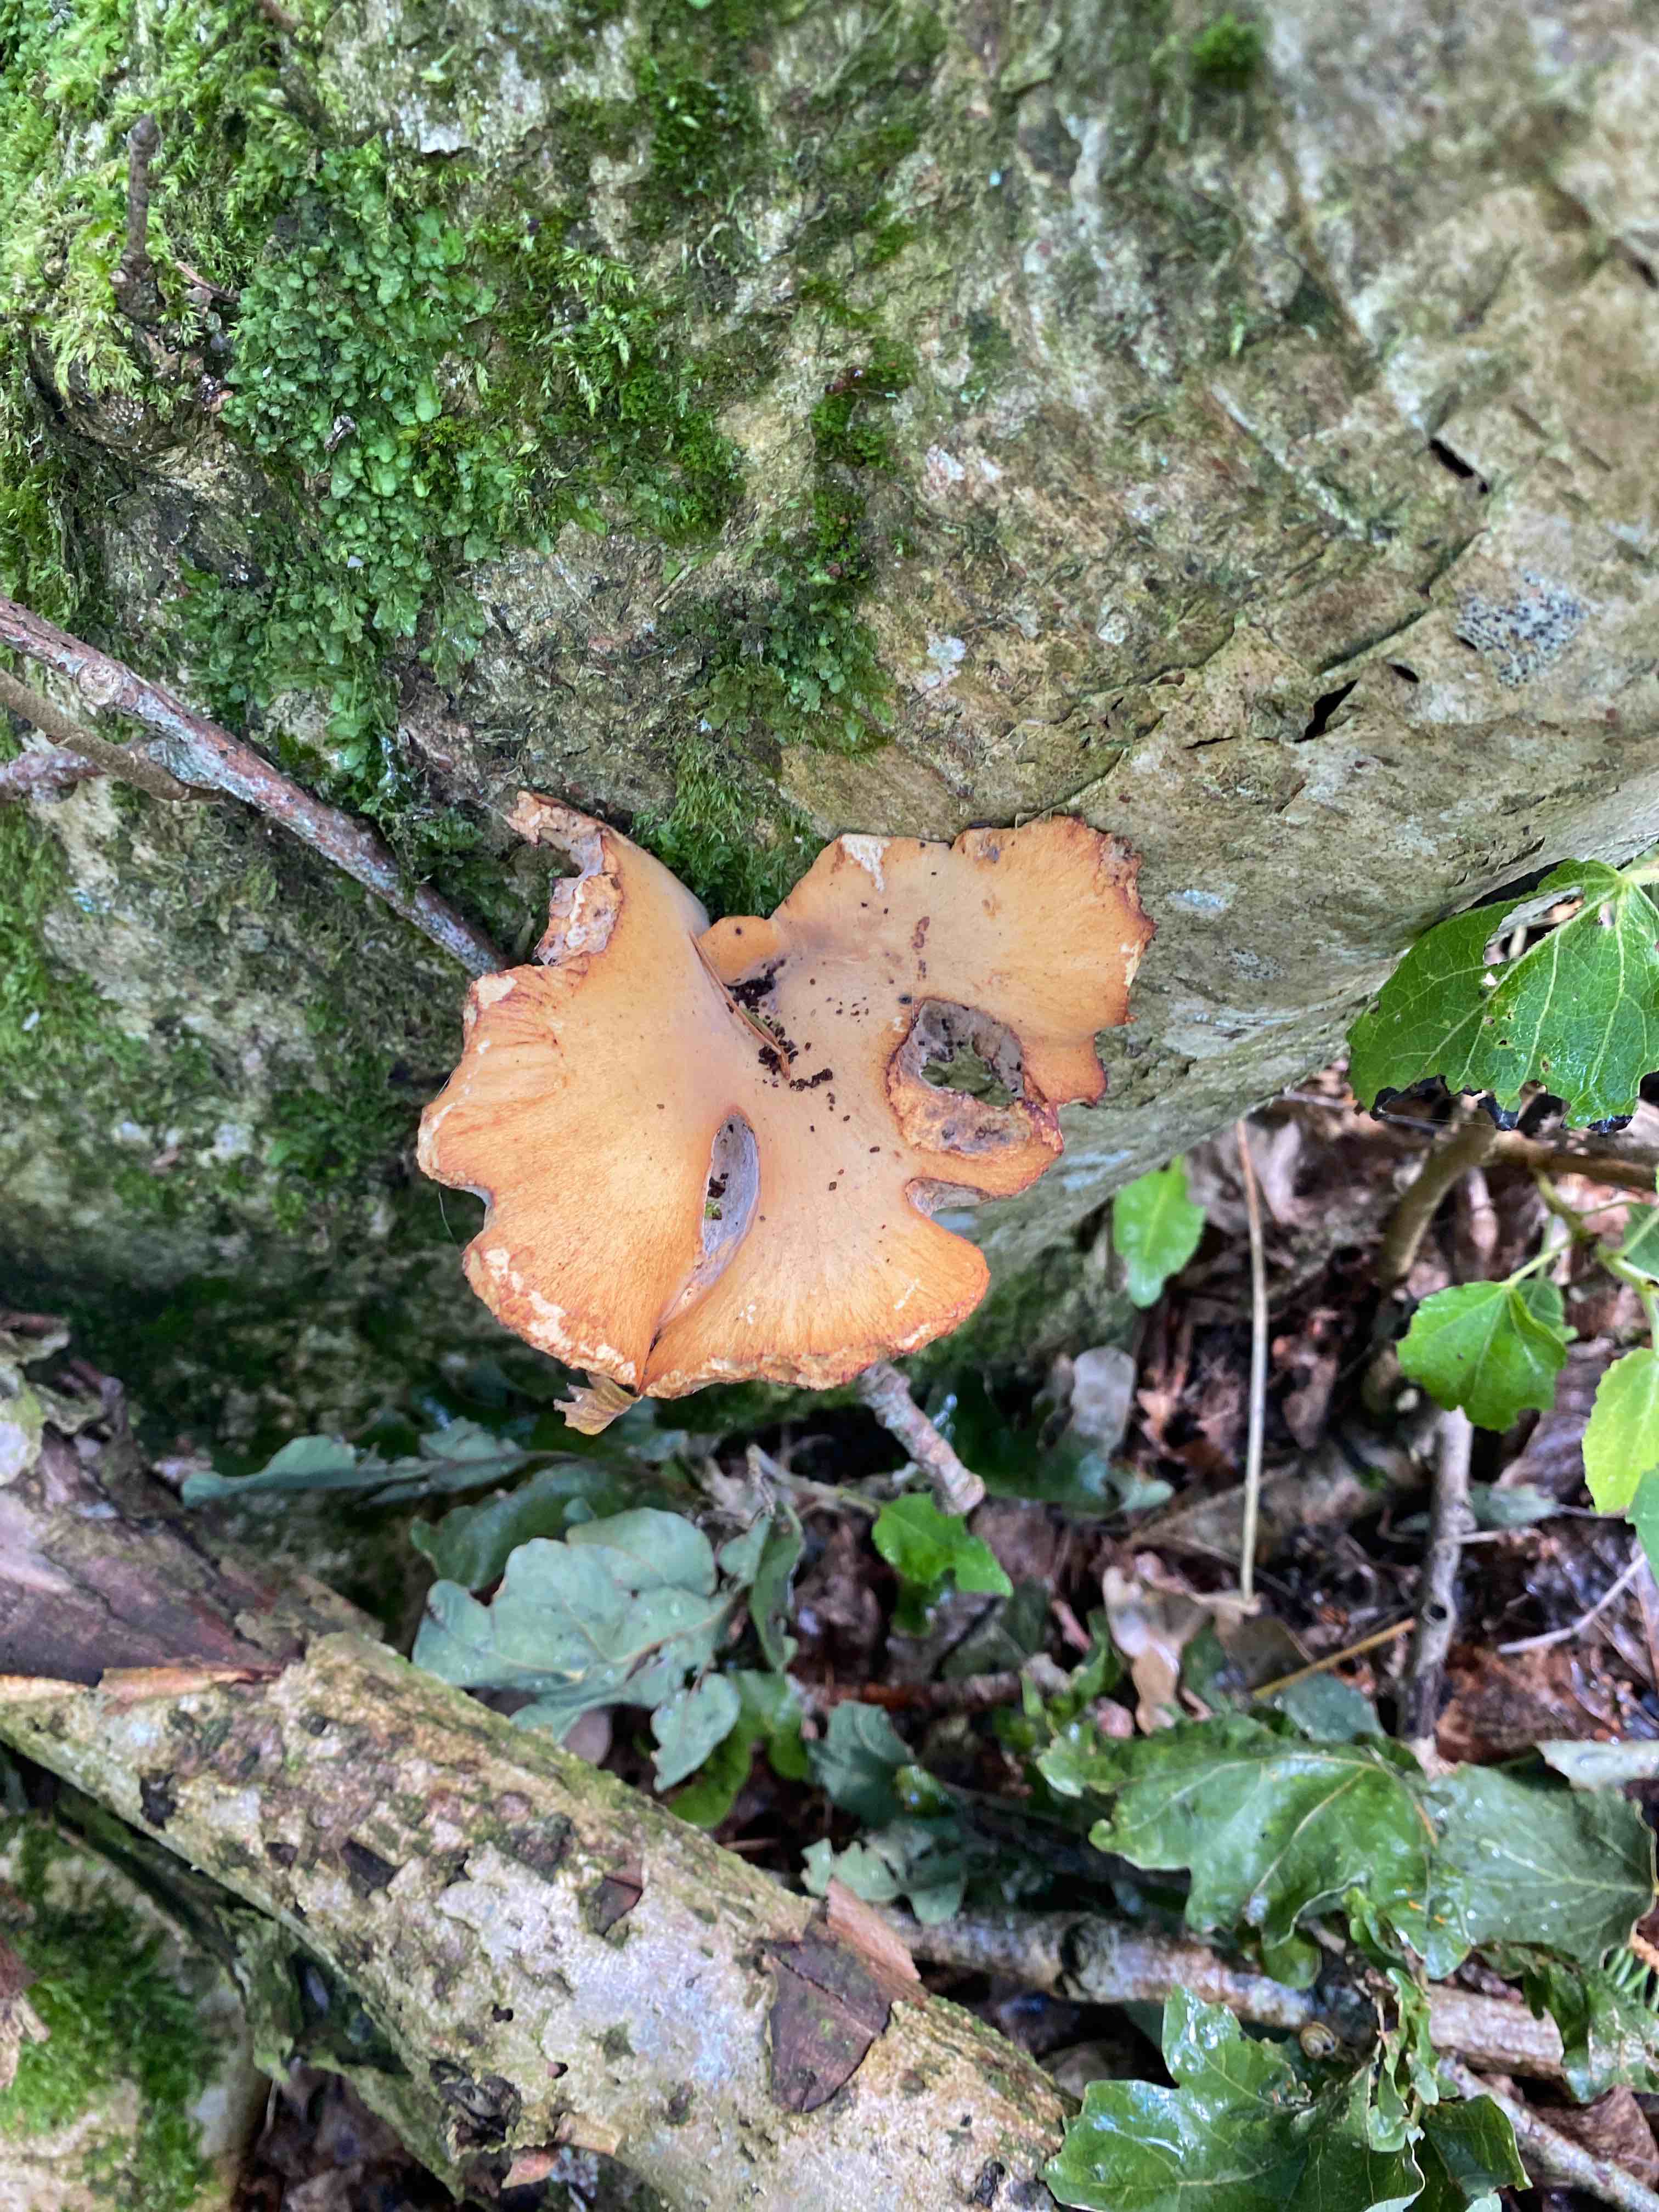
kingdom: Fungi
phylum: Basidiomycota
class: Agaricomycetes
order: Polyporales
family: Polyporaceae
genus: Cerioporus
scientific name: Cerioporus varius
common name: foranderlig stilkporesvamp
